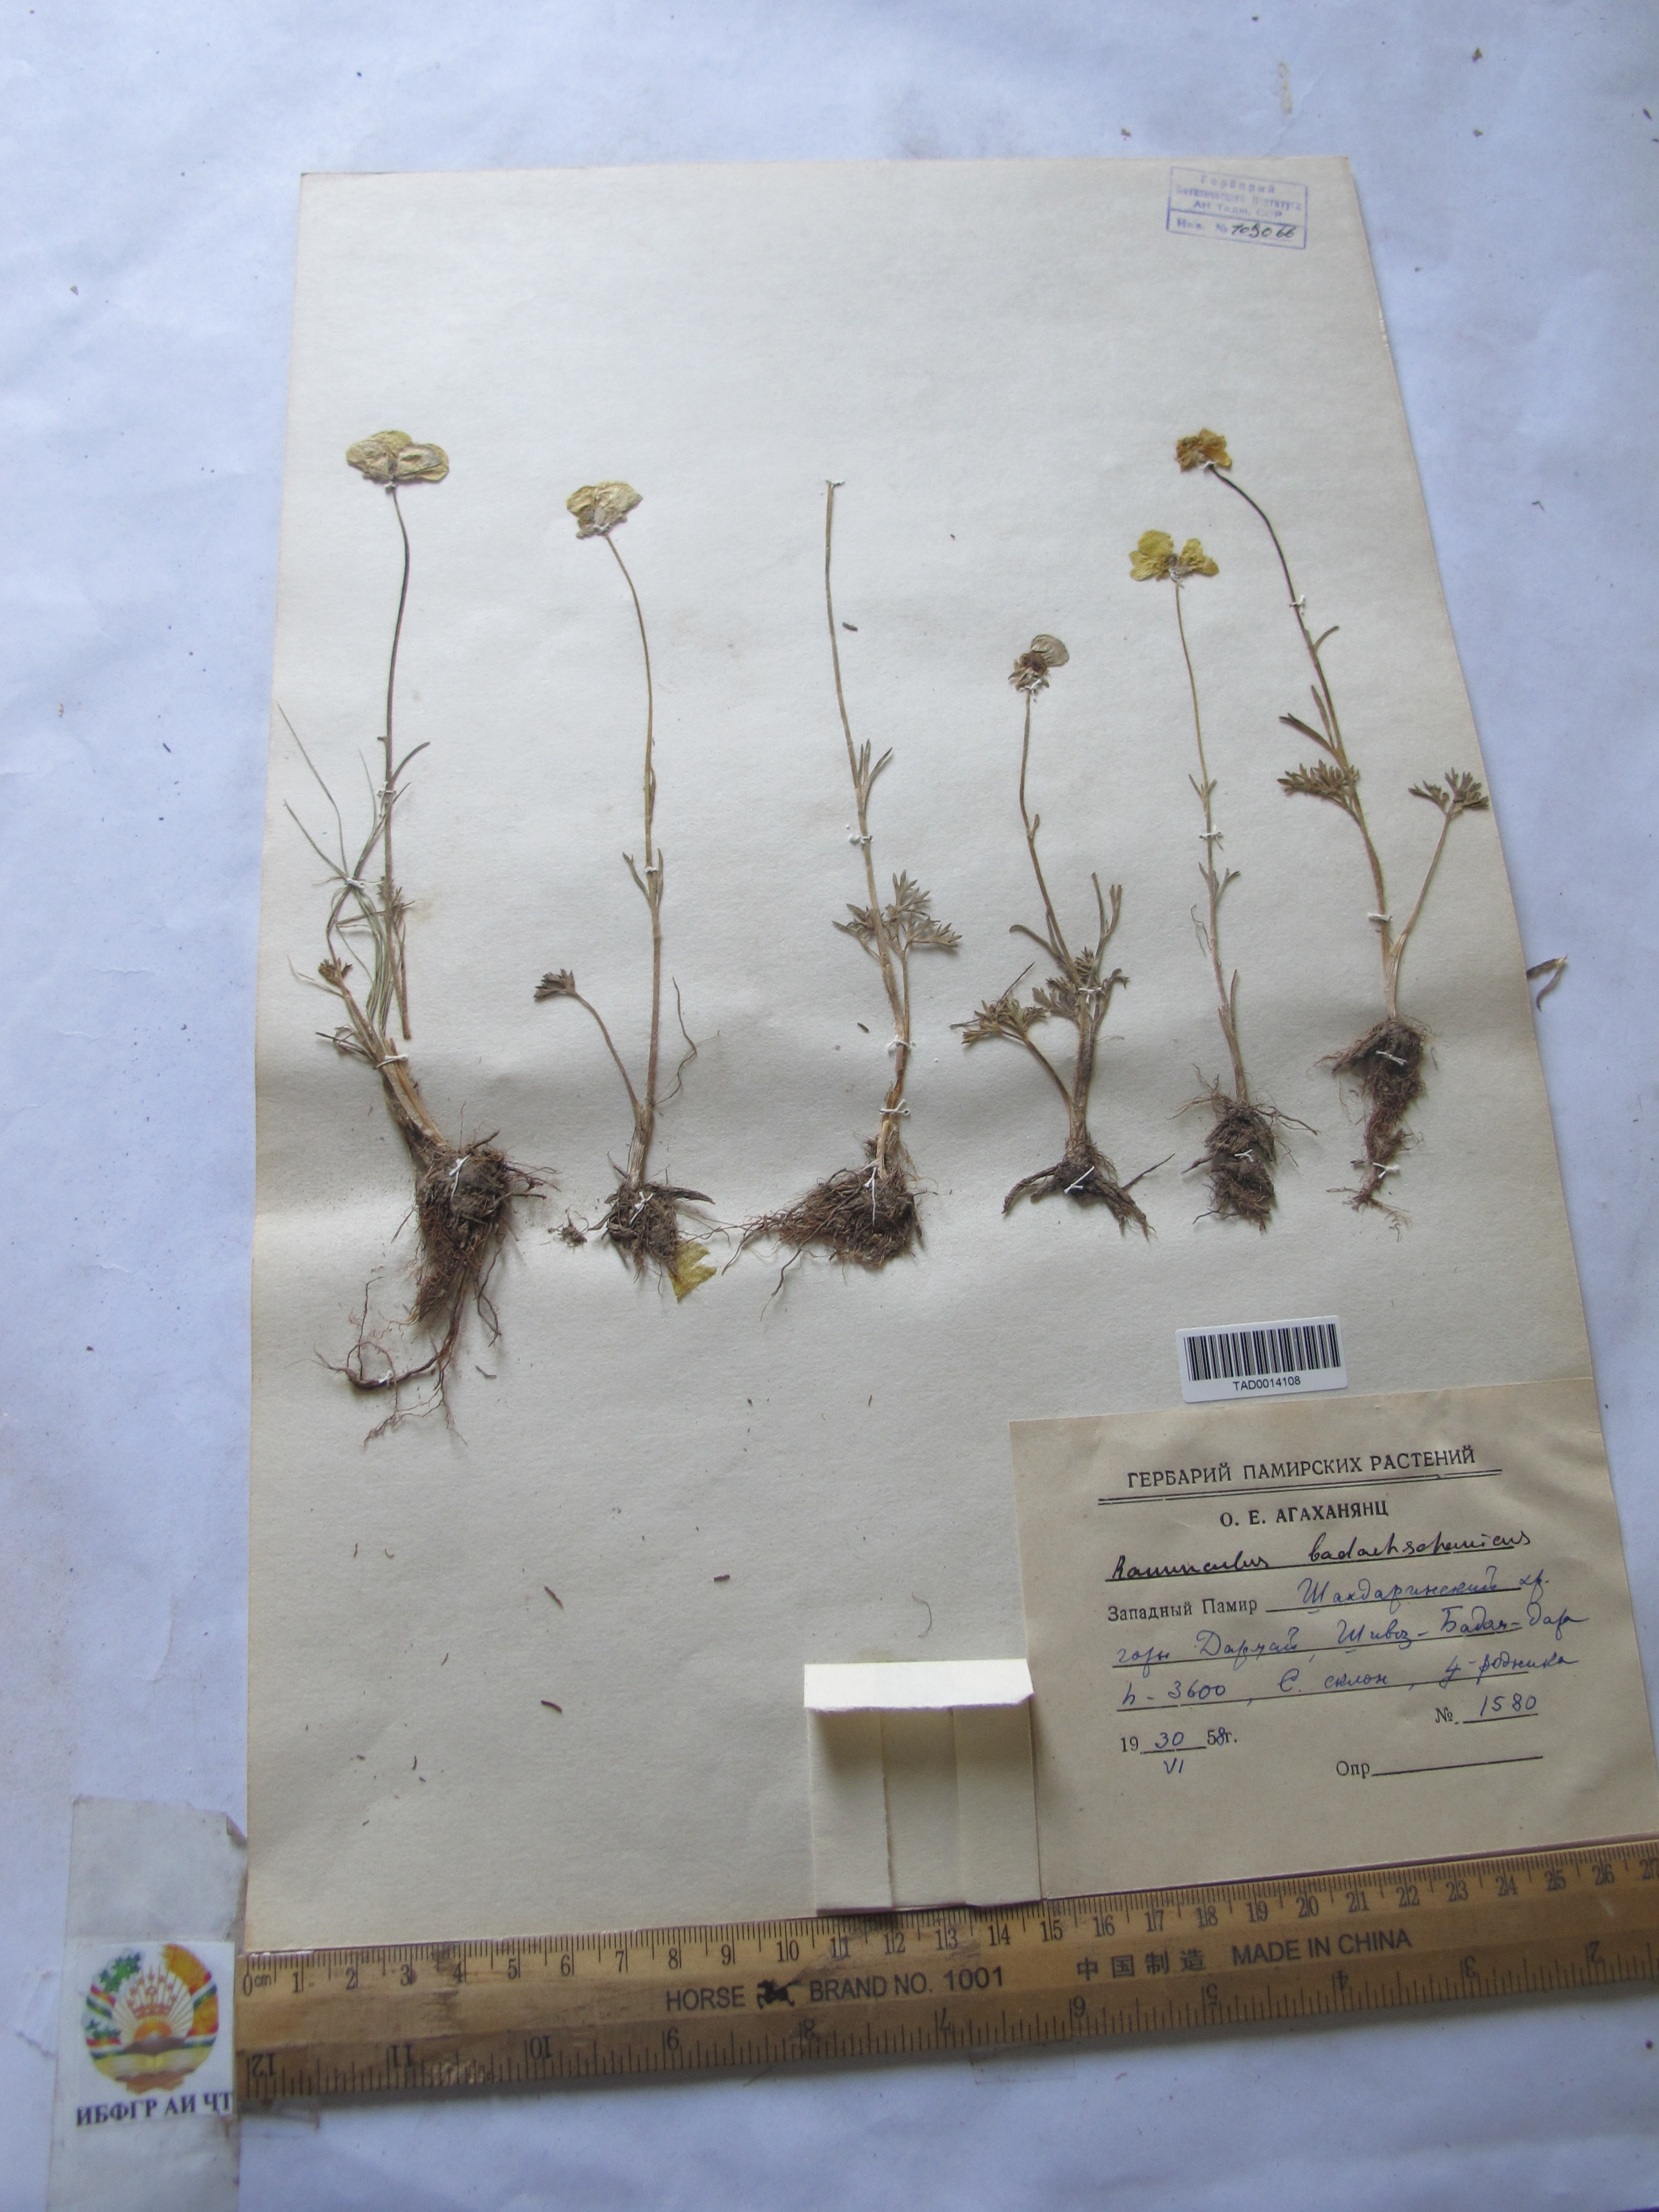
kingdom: Plantae
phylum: Tracheophyta
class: Magnoliopsida
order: Ranunculales
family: Ranunculaceae
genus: Ranunculus
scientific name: Ranunculus badachschanicus
